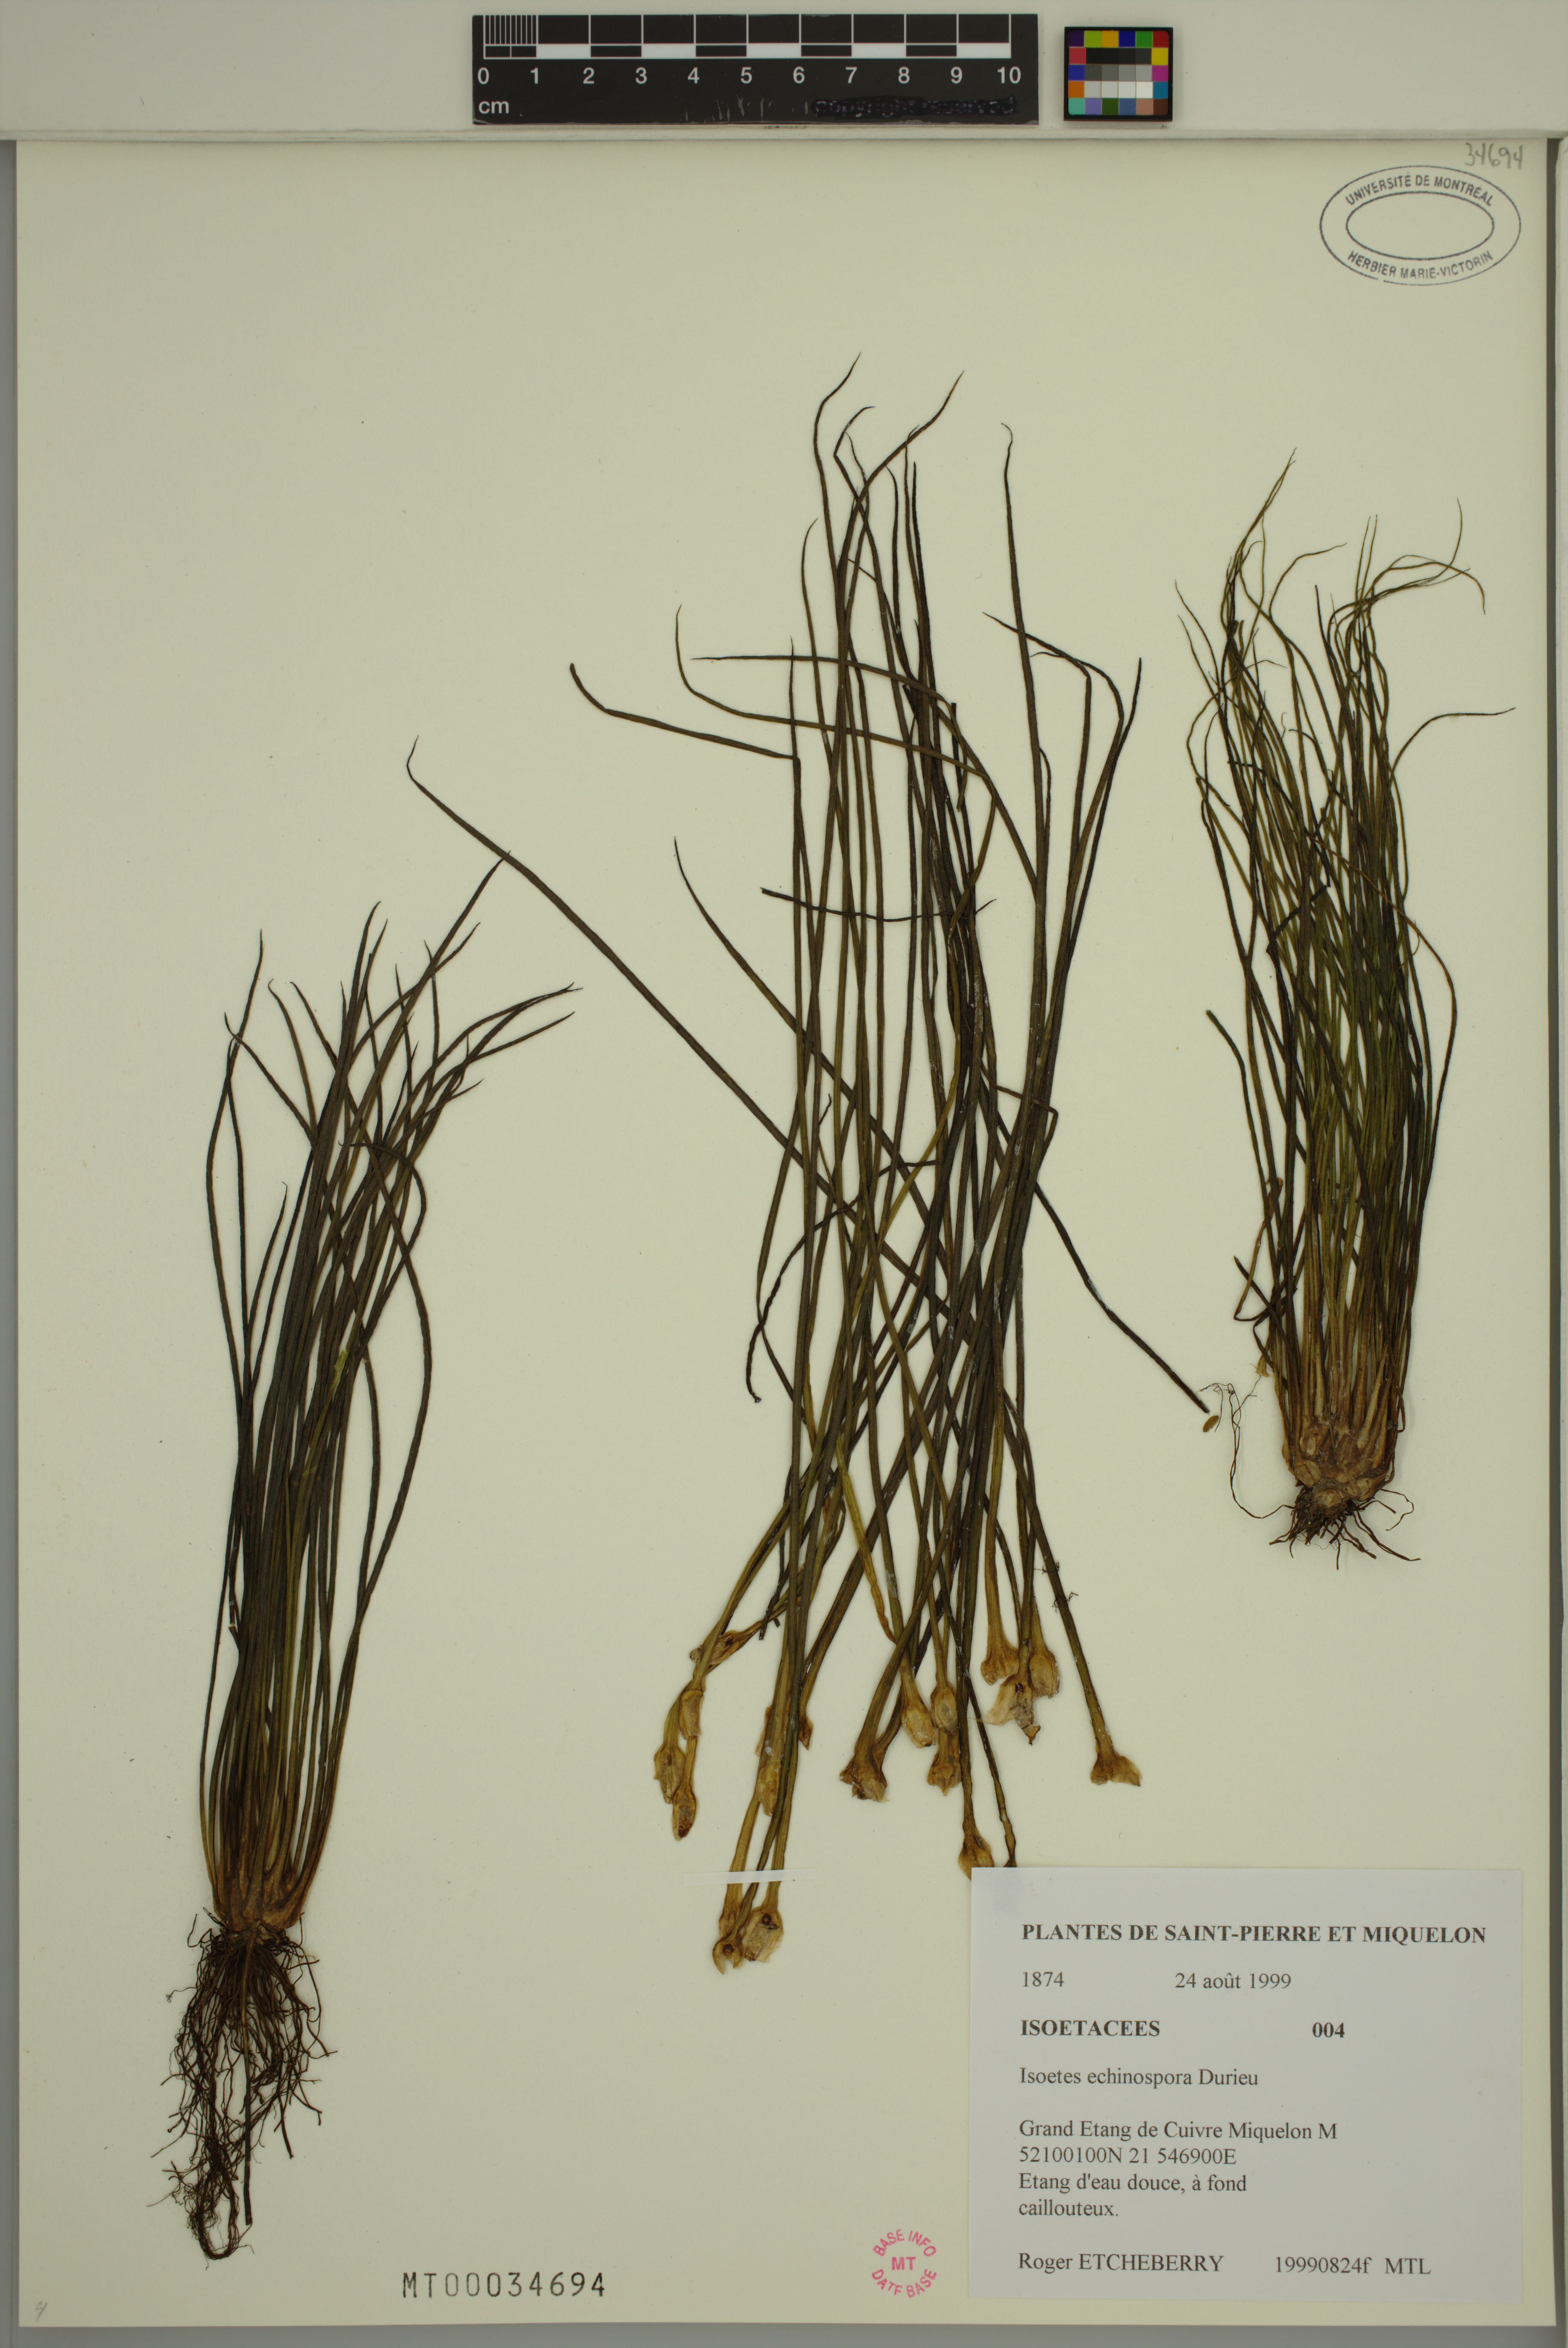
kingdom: Plantae
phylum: Tracheophyta
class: Lycopodiopsida
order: Isoetales
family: Isoetaceae
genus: Isoetes
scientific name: Isoetes echinospora
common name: Spring quillwort
